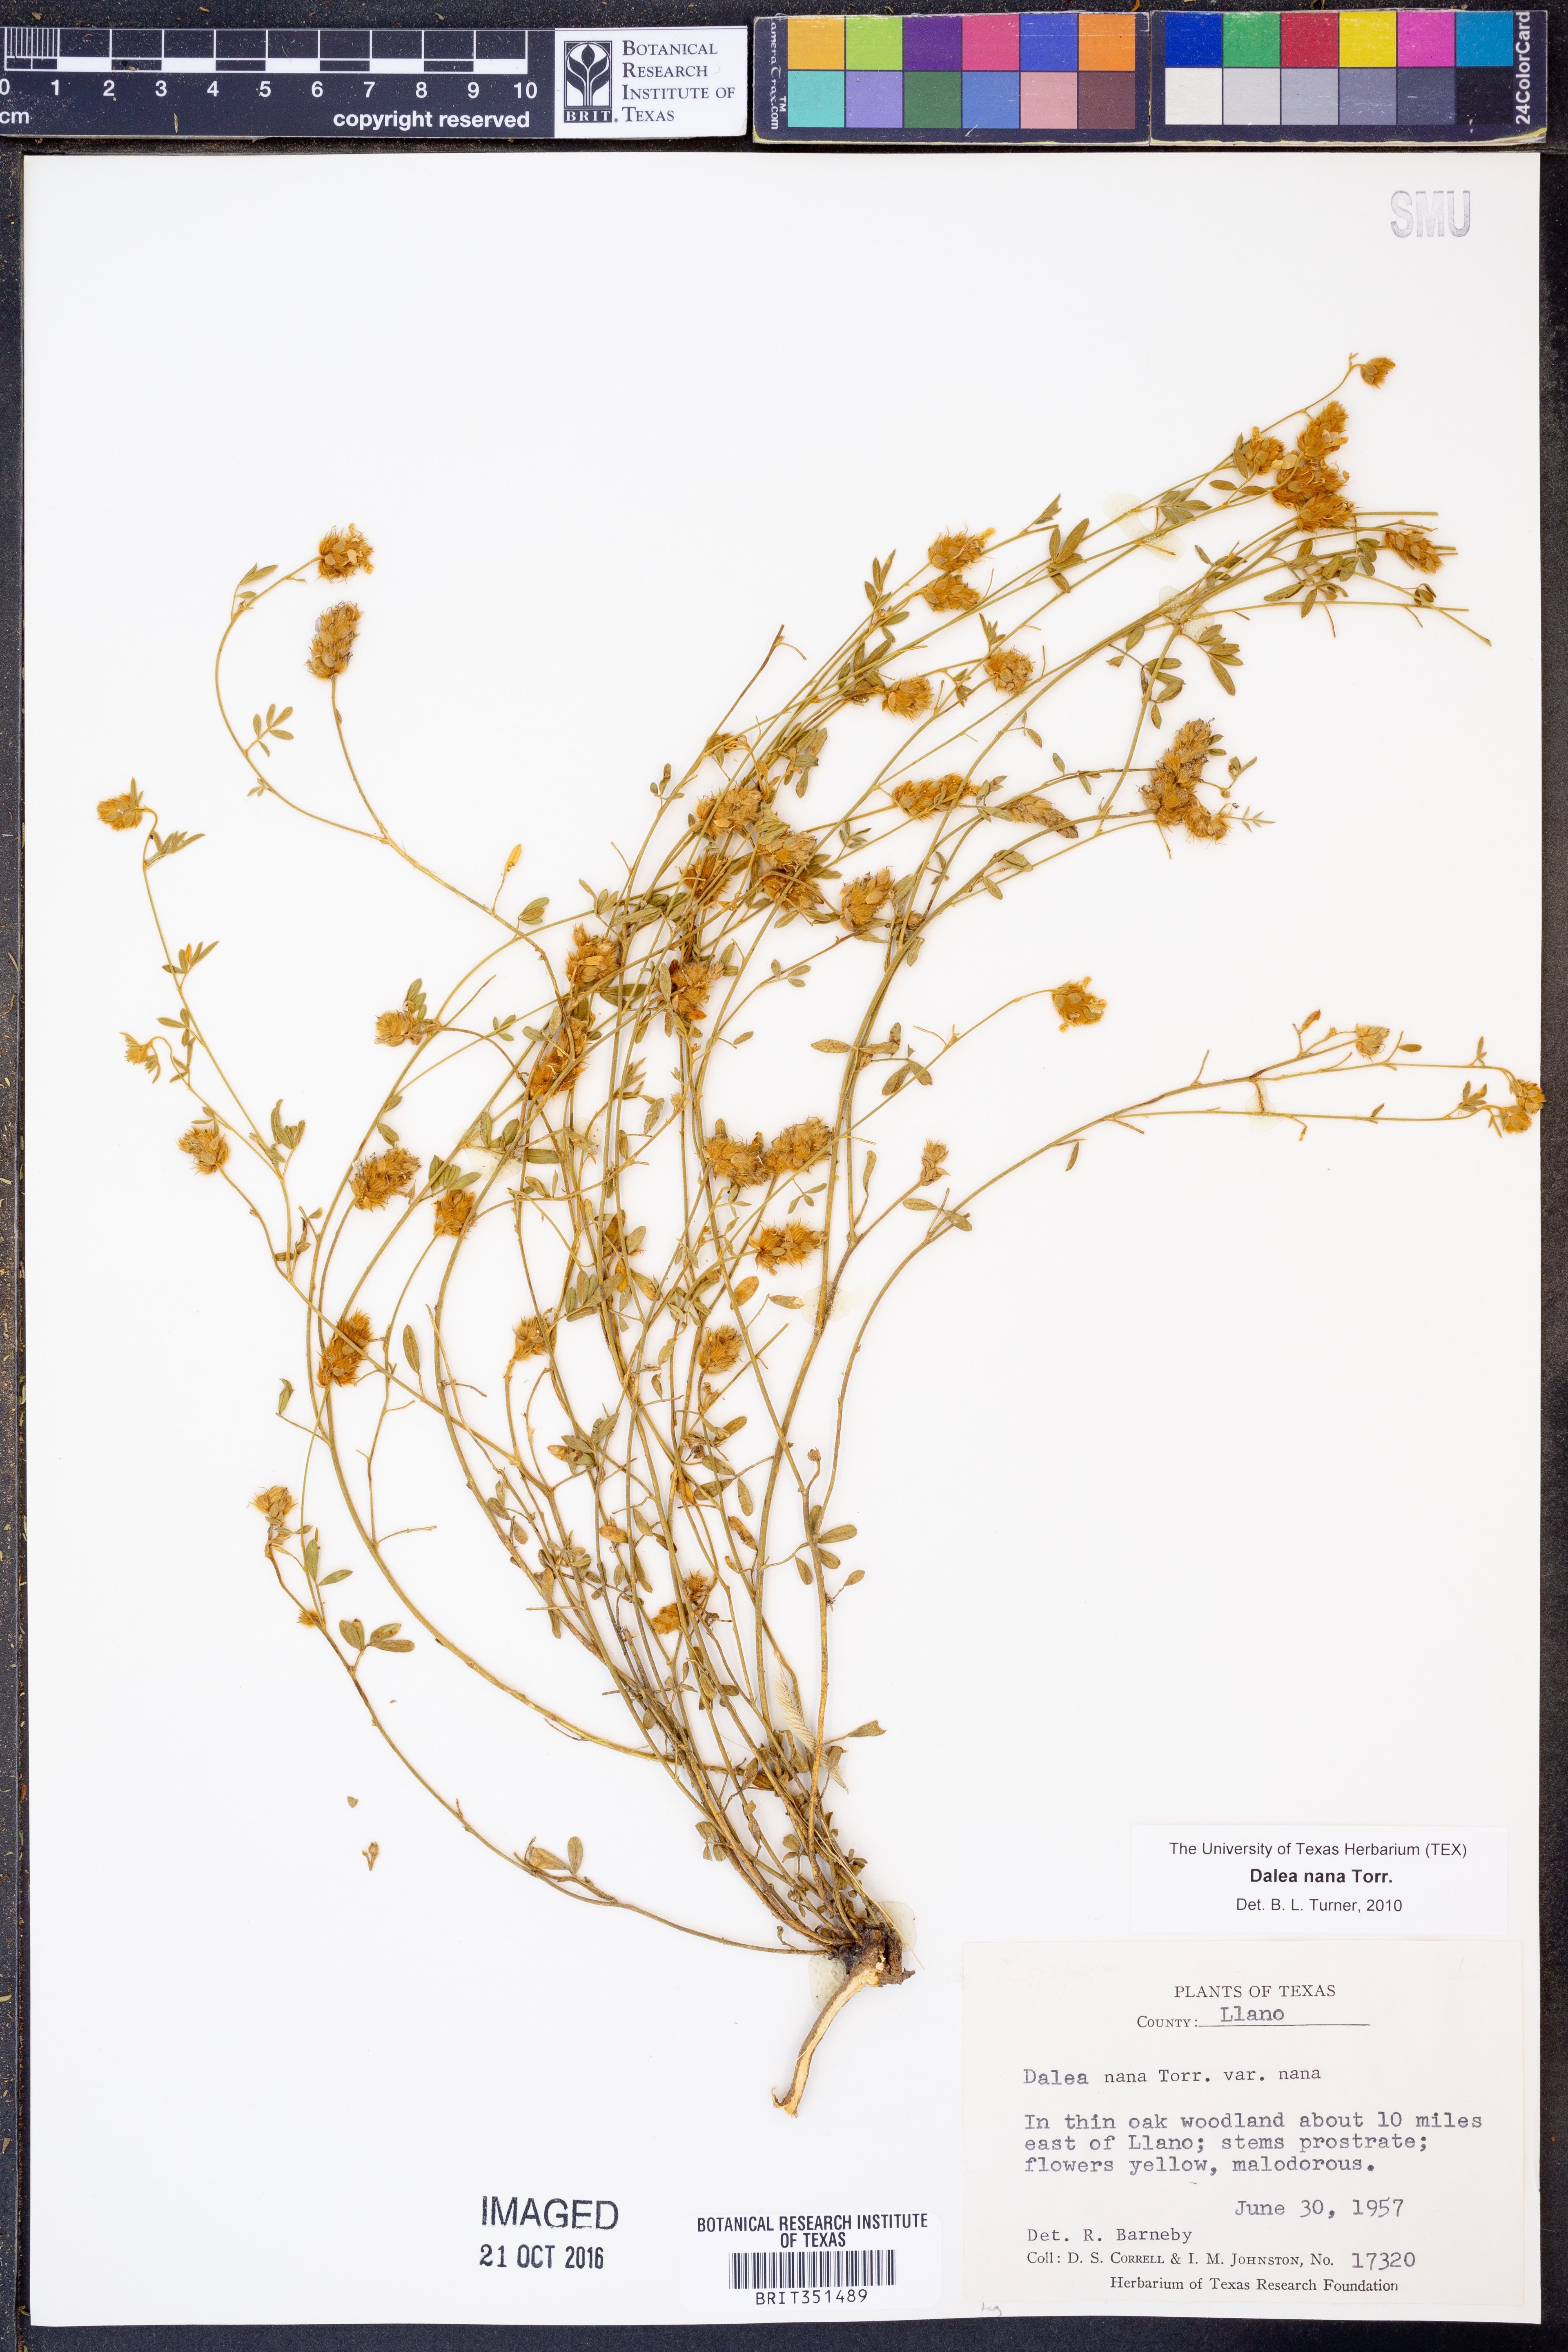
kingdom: Plantae
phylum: Tracheophyta
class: Magnoliopsida
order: Fabales
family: Fabaceae
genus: Dalea
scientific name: Dalea nana
